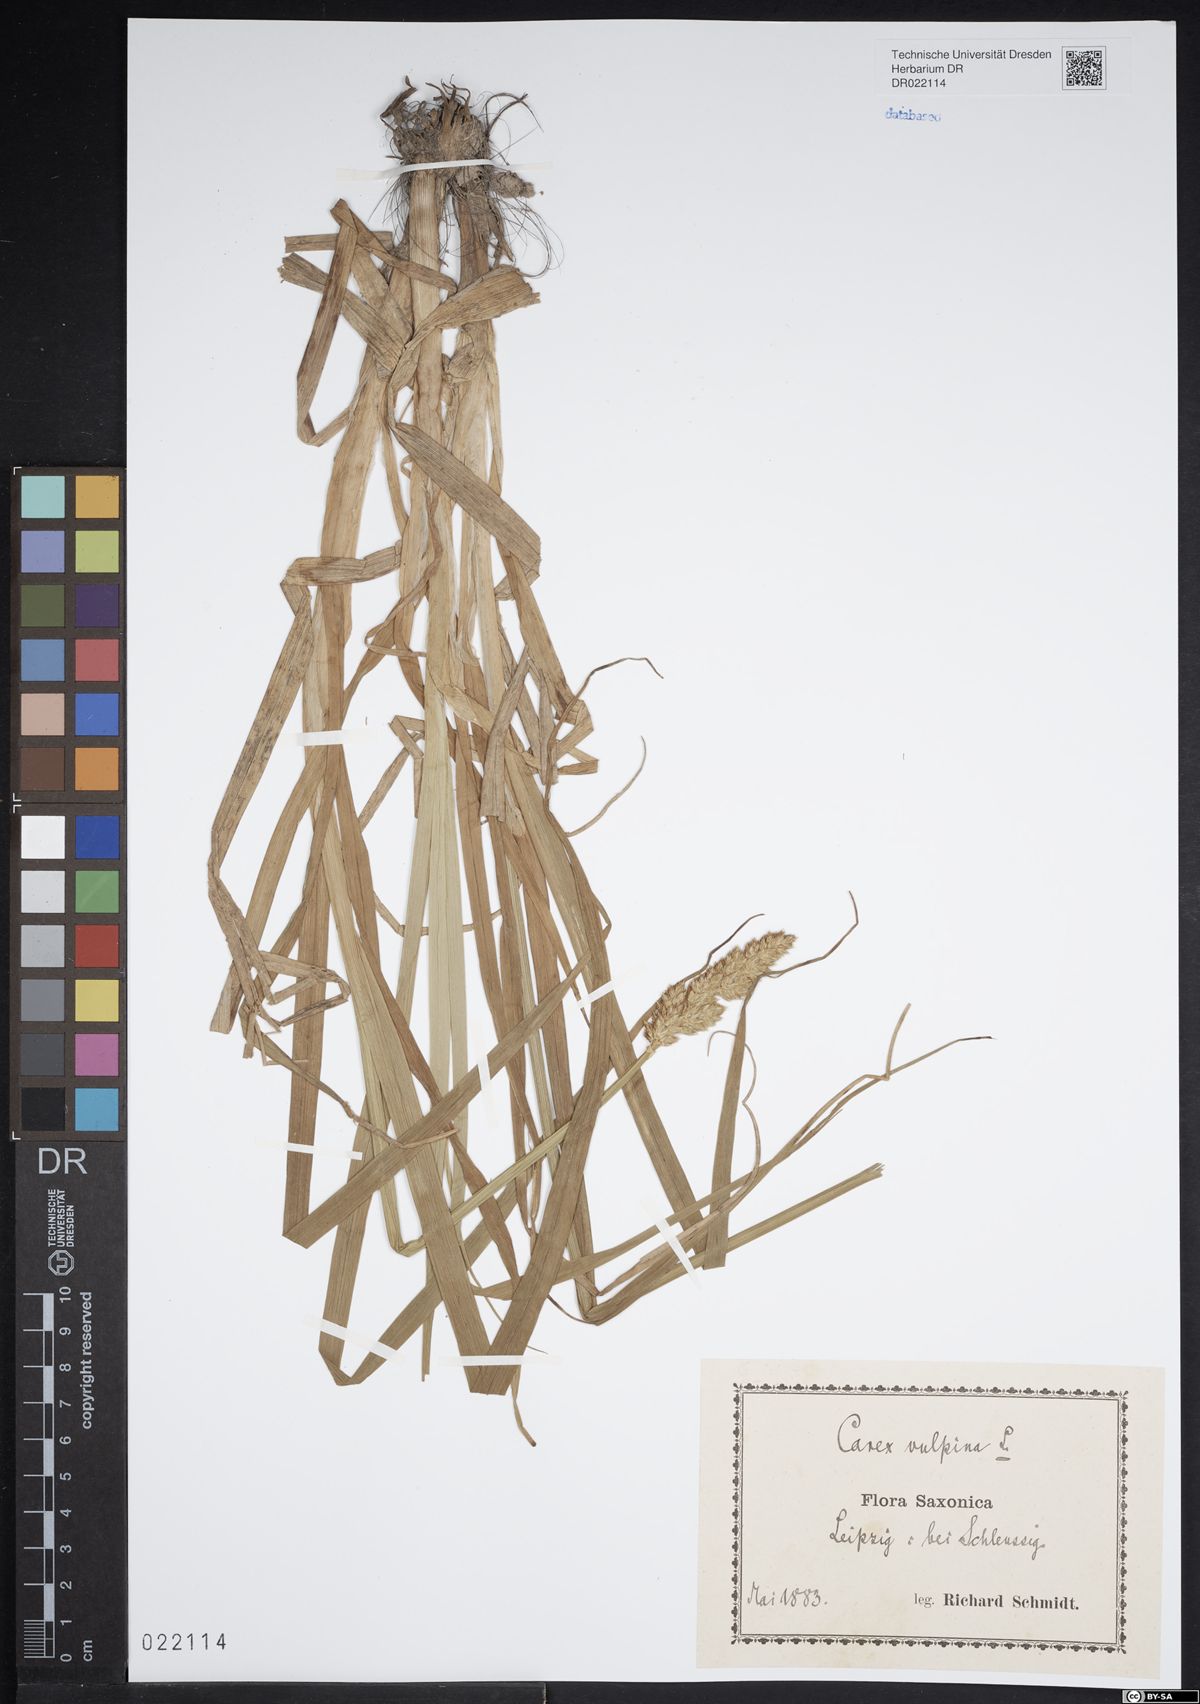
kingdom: Plantae
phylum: Tracheophyta
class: Liliopsida
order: Poales
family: Cyperaceae
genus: Carex
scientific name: Carex vulpina
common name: True fox-sedge
